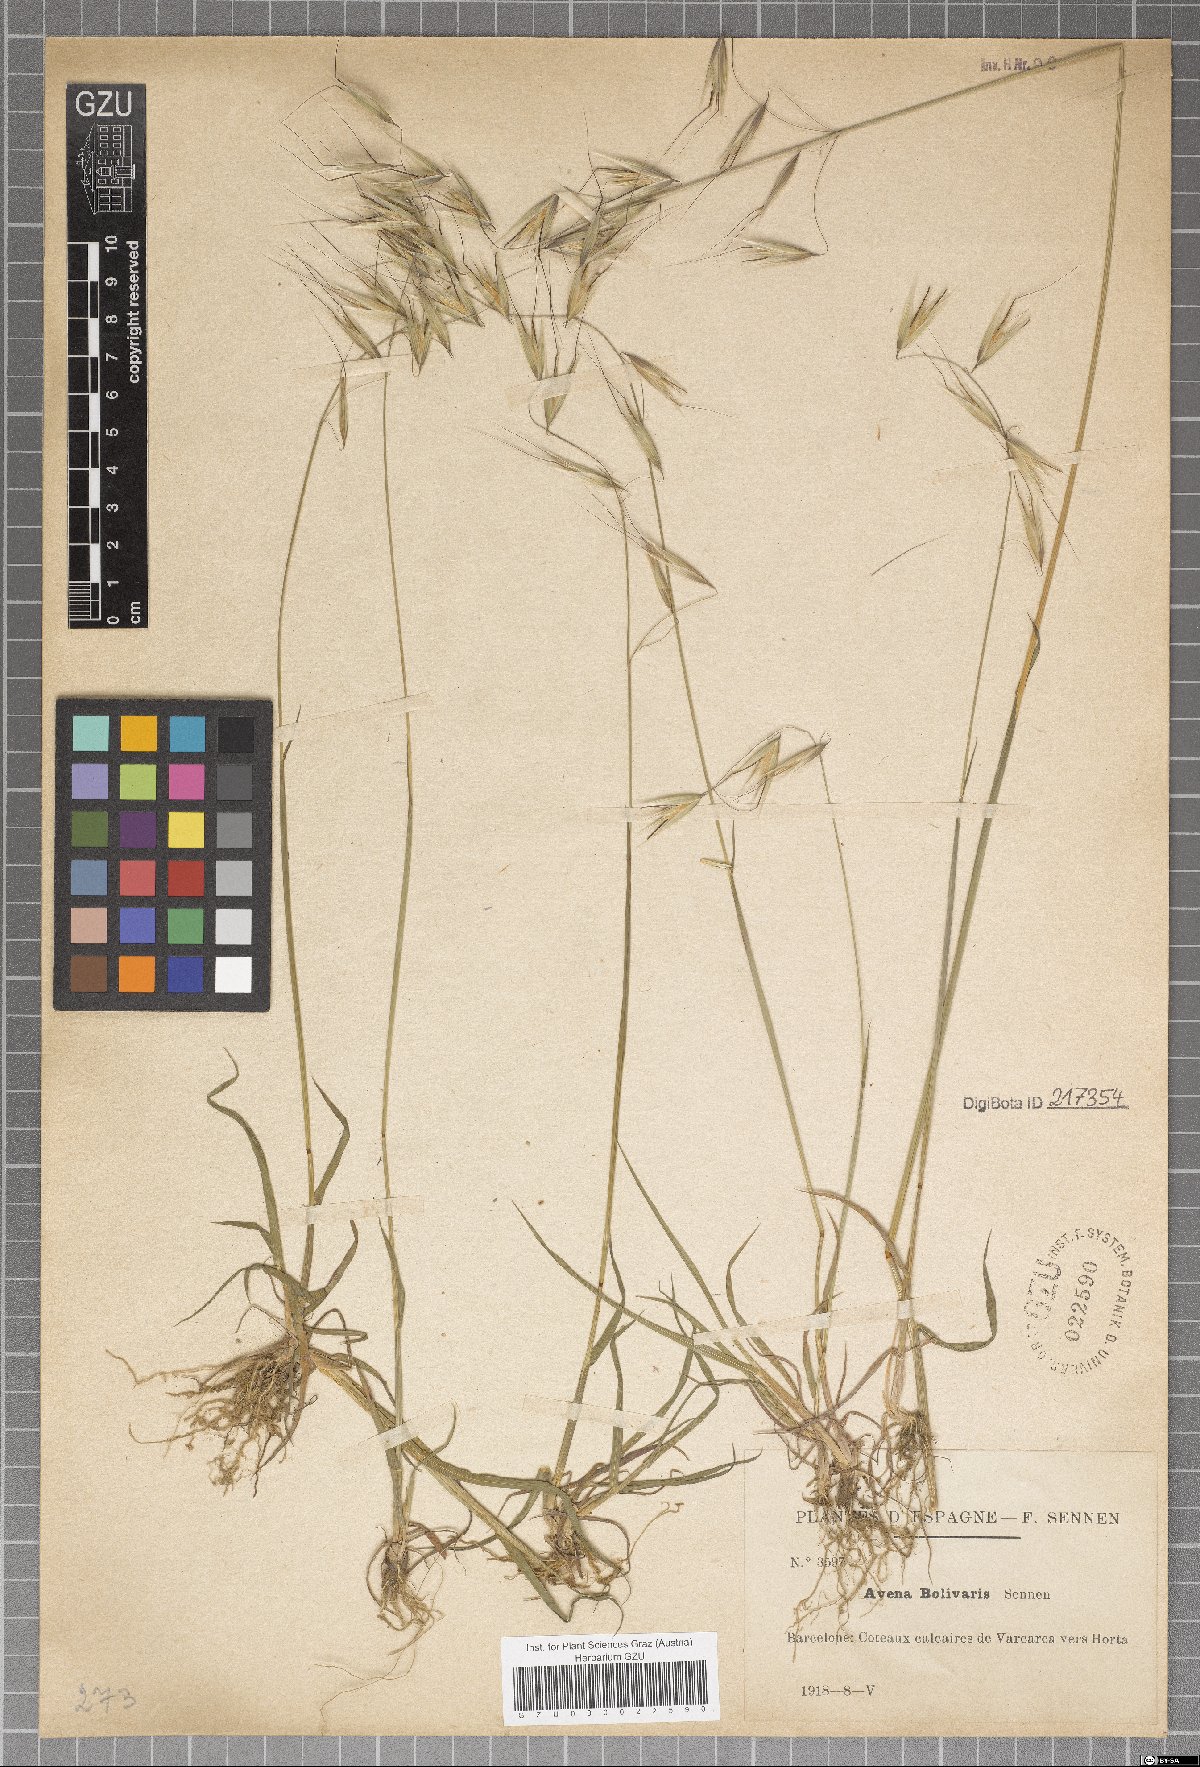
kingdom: Plantae
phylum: Tracheophyta
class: Liliopsida
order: Poales
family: Poaceae
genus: Avena
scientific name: Avena barbata
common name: Slender oat
